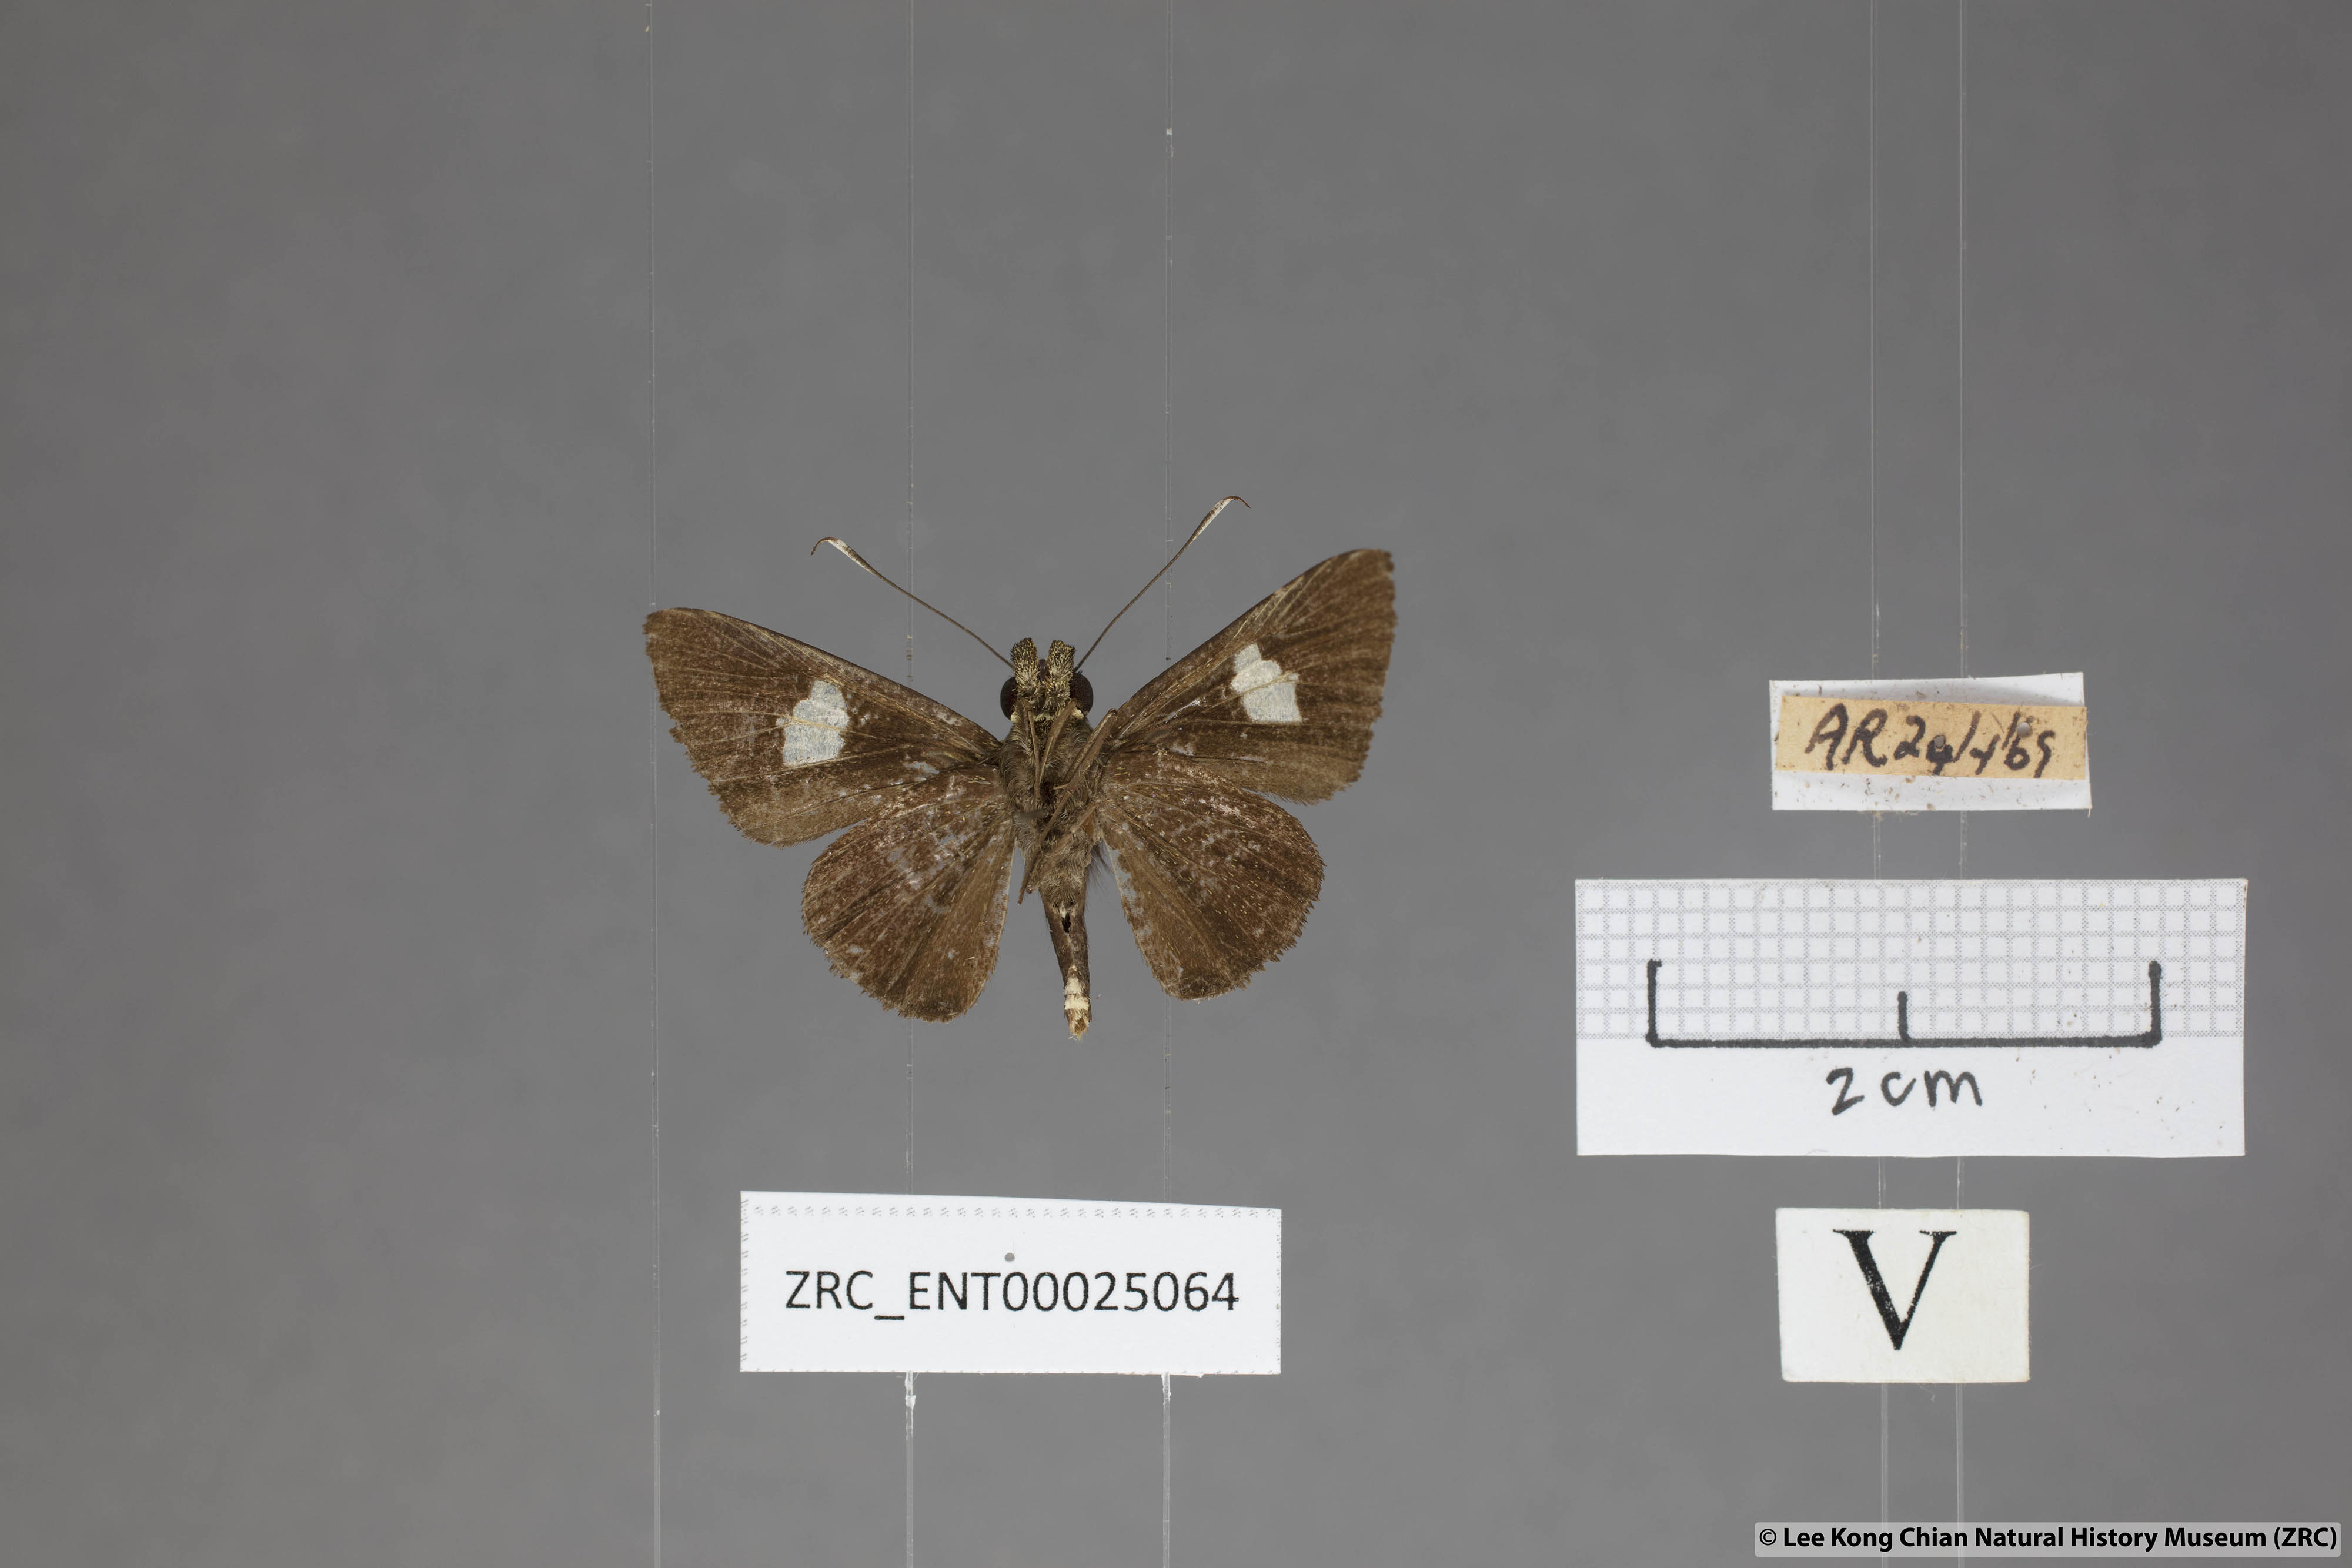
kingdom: Animalia
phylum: Arthropoda
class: Insecta
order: Lepidoptera
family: Hesperiidae
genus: Oerane
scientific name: Oerane microthyrus
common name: White club flitter
